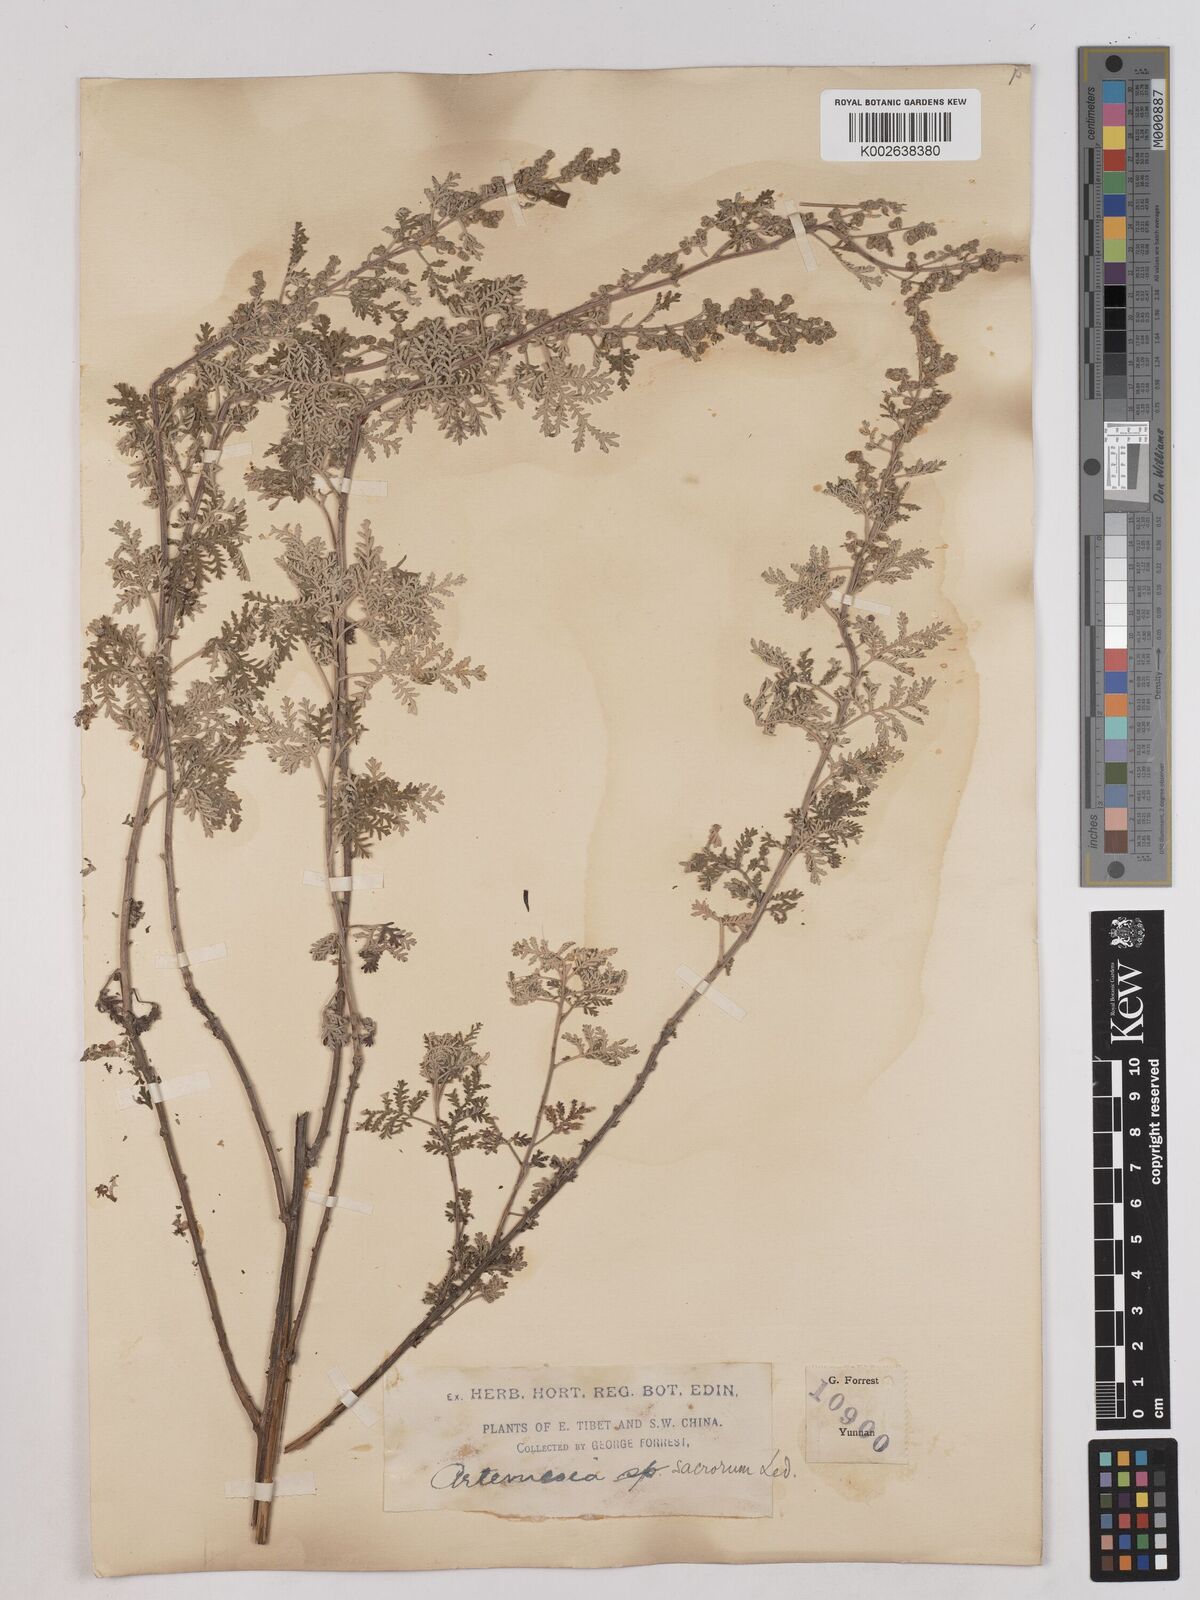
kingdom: Plantae
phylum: Tracheophyta
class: Magnoliopsida
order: Asterales
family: Asteraceae
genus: Artemisia
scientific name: Artemisia gmelinii
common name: Gmelin's wormwood
